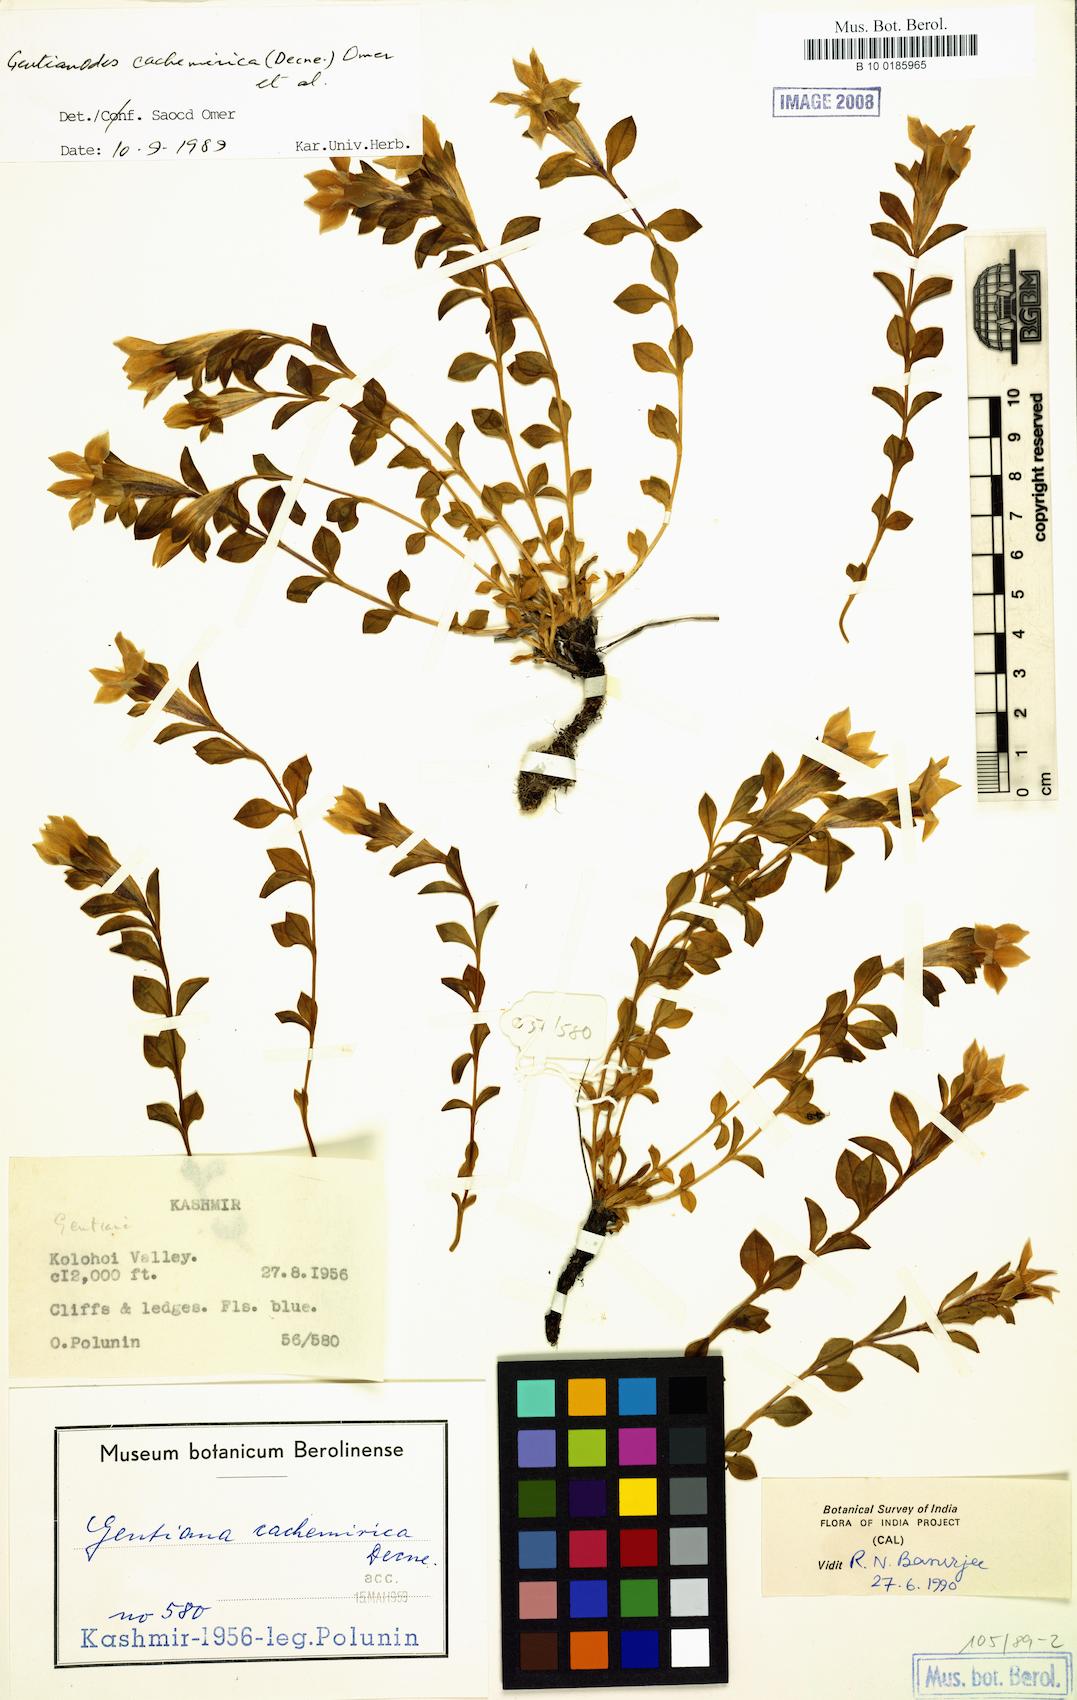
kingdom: Plantae
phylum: Tracheophyta
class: Magnoliopsida
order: Gentianales
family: Gentianaceae
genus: Gentiana
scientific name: Gentiana cachemirica
